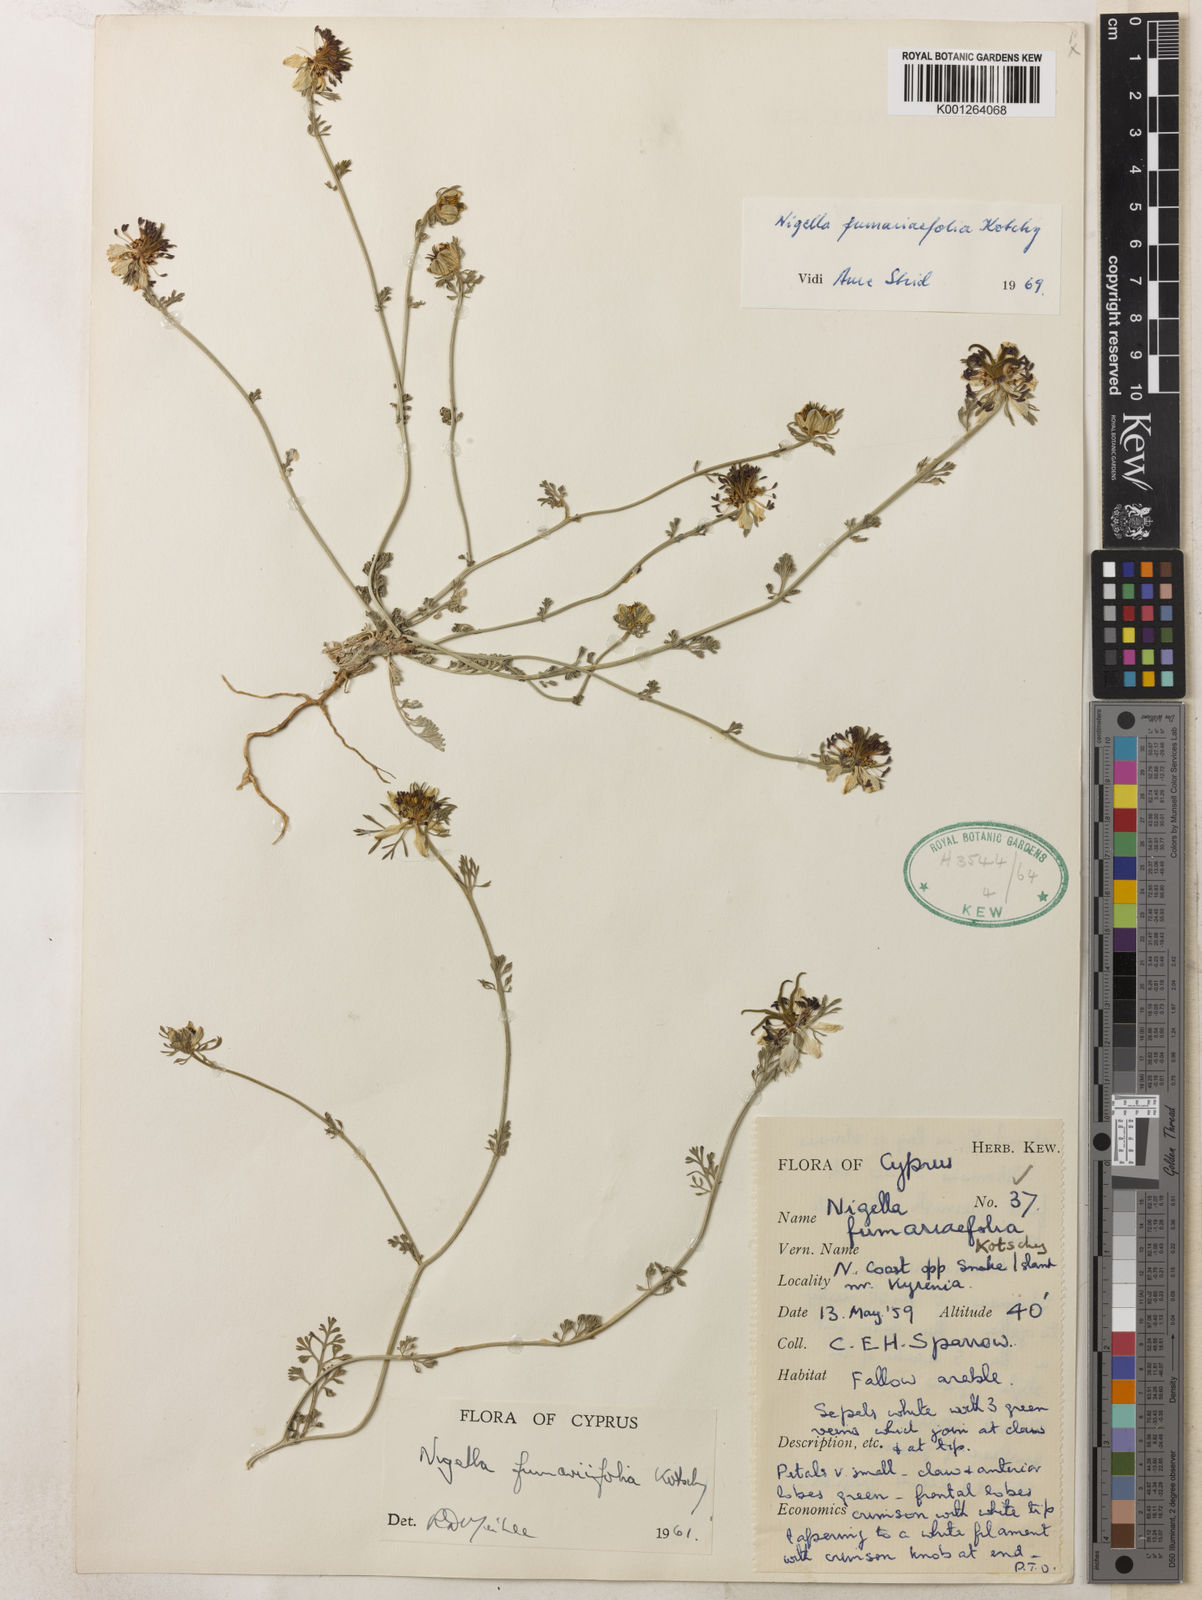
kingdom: Plantae
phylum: Tracheophyta
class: Magnoliopsida
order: Ranunculales
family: Ranunculaceae
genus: Nigella
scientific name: Nigella
